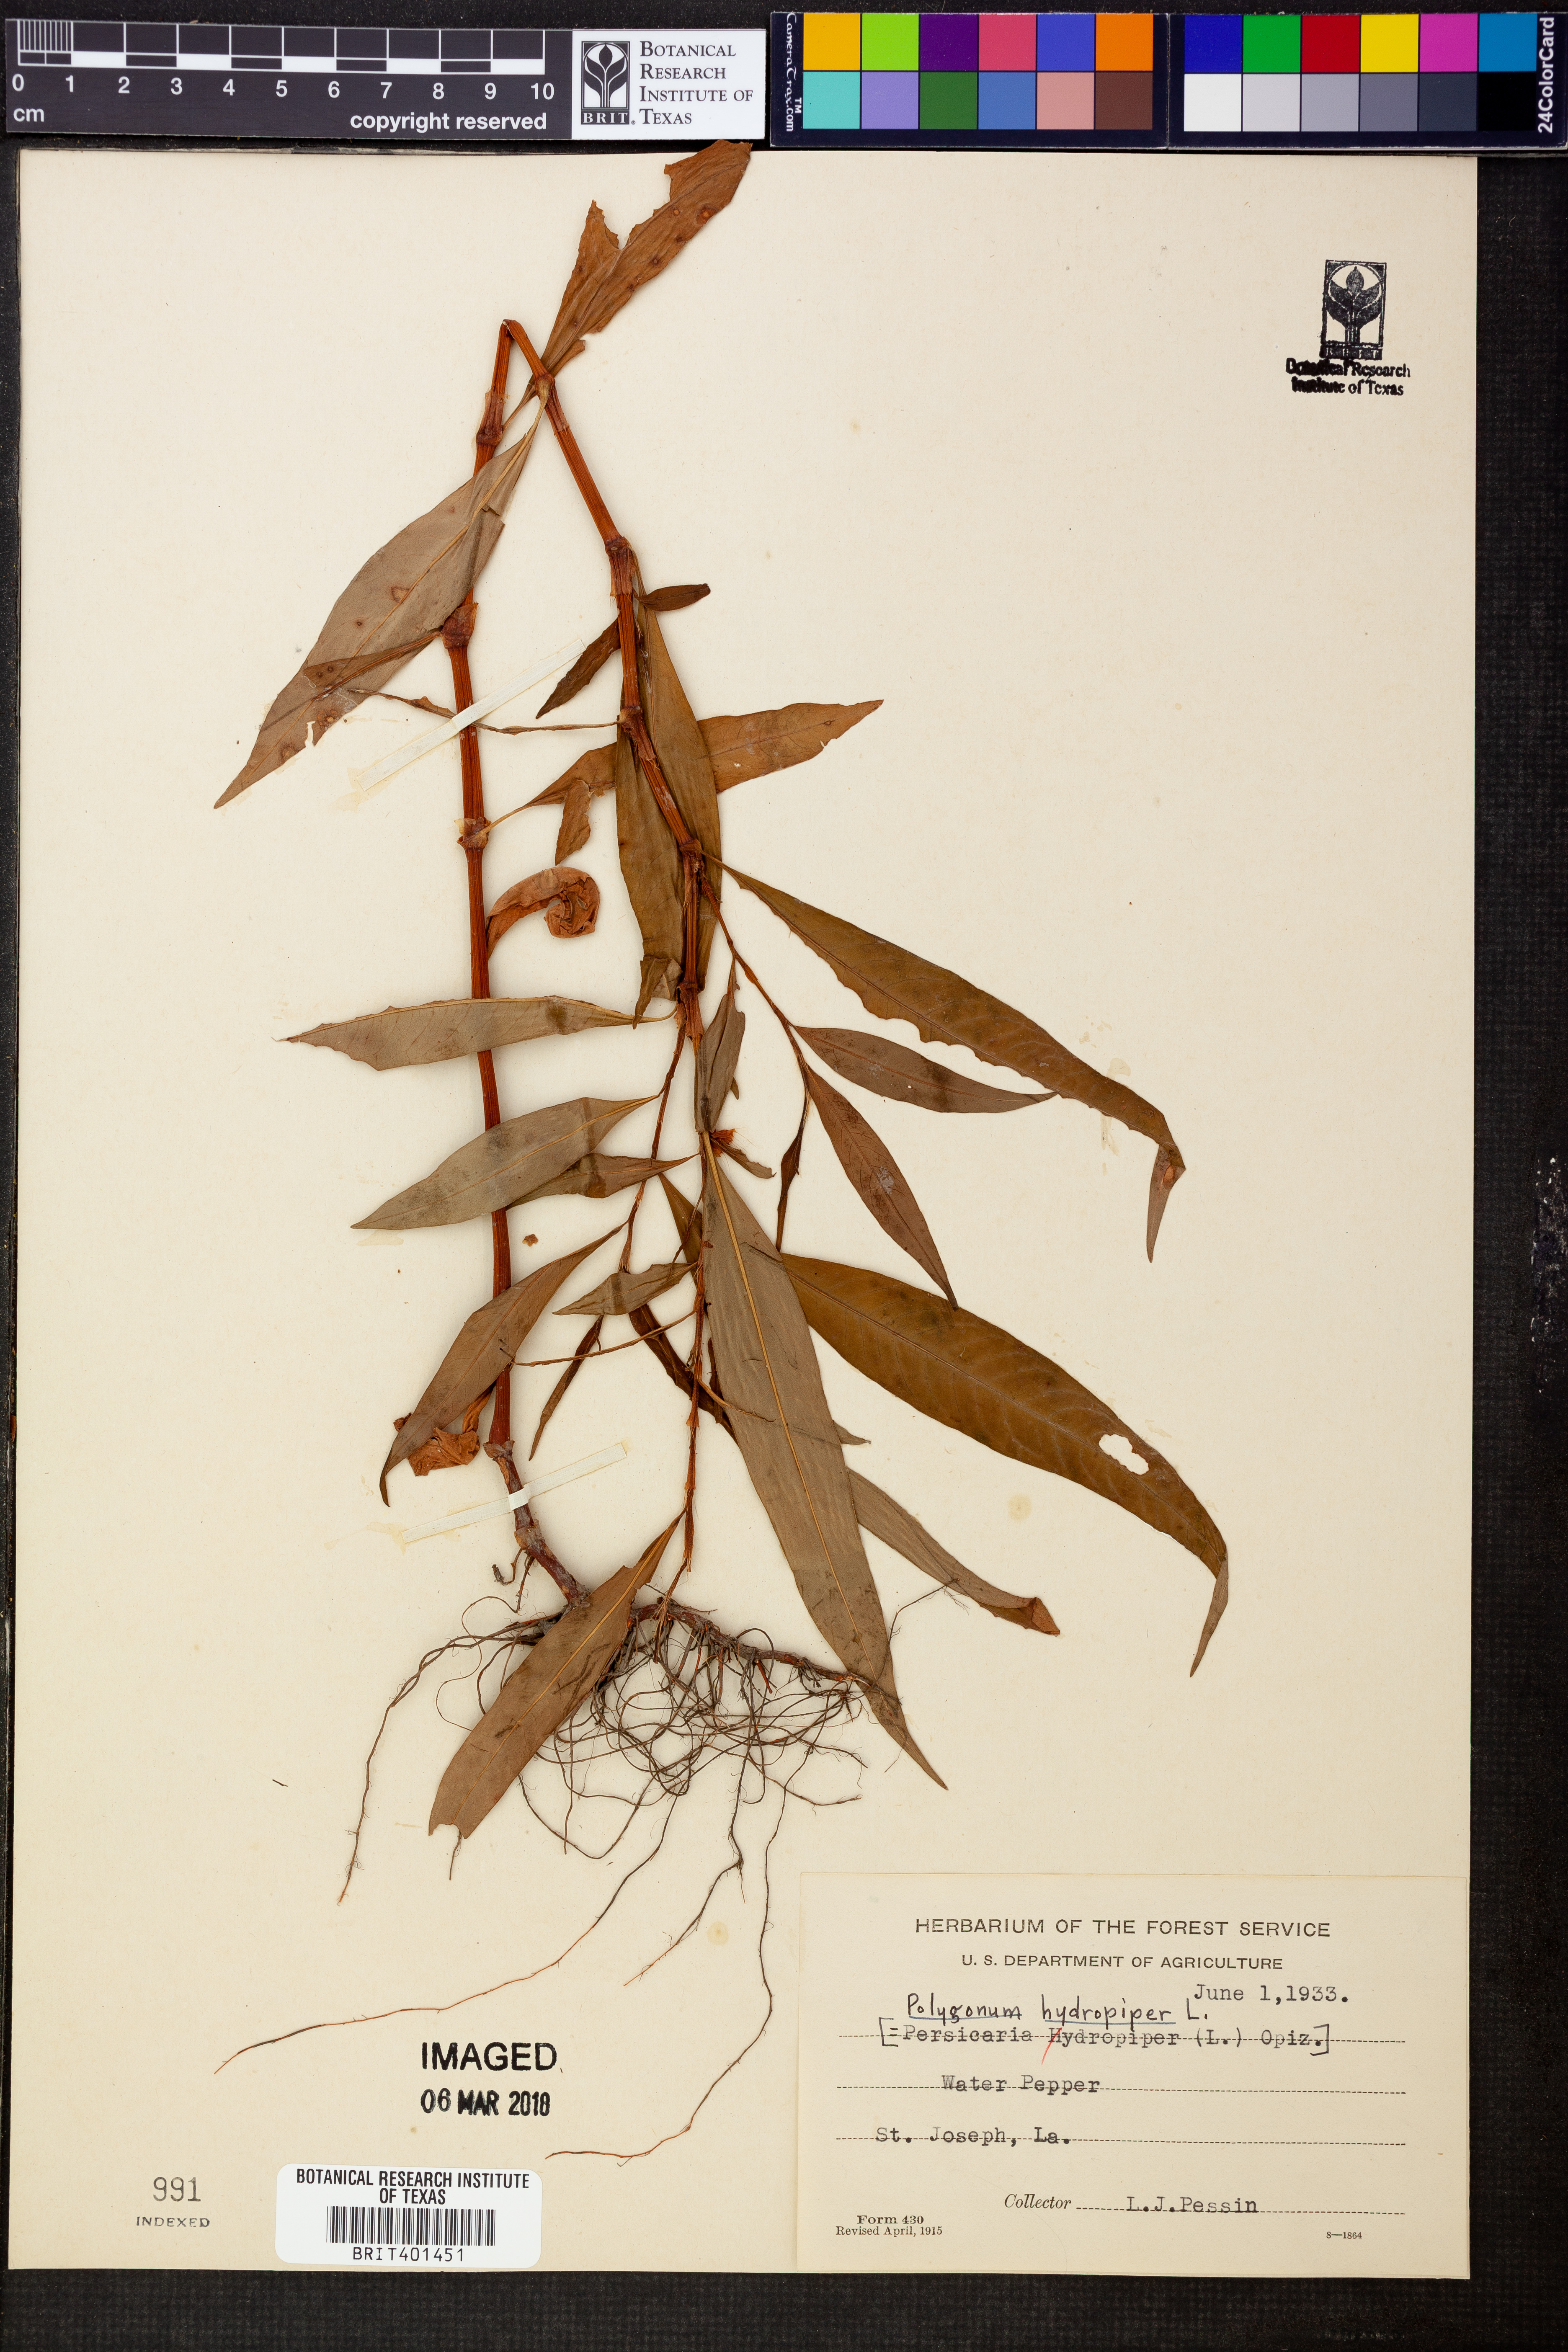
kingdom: Plantae
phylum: Tracheophyta
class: Magnoliopsida
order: Caryophyllales
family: Polygonaceae
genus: Persicaria
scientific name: Persicaria hydropiper
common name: Water-pepper
